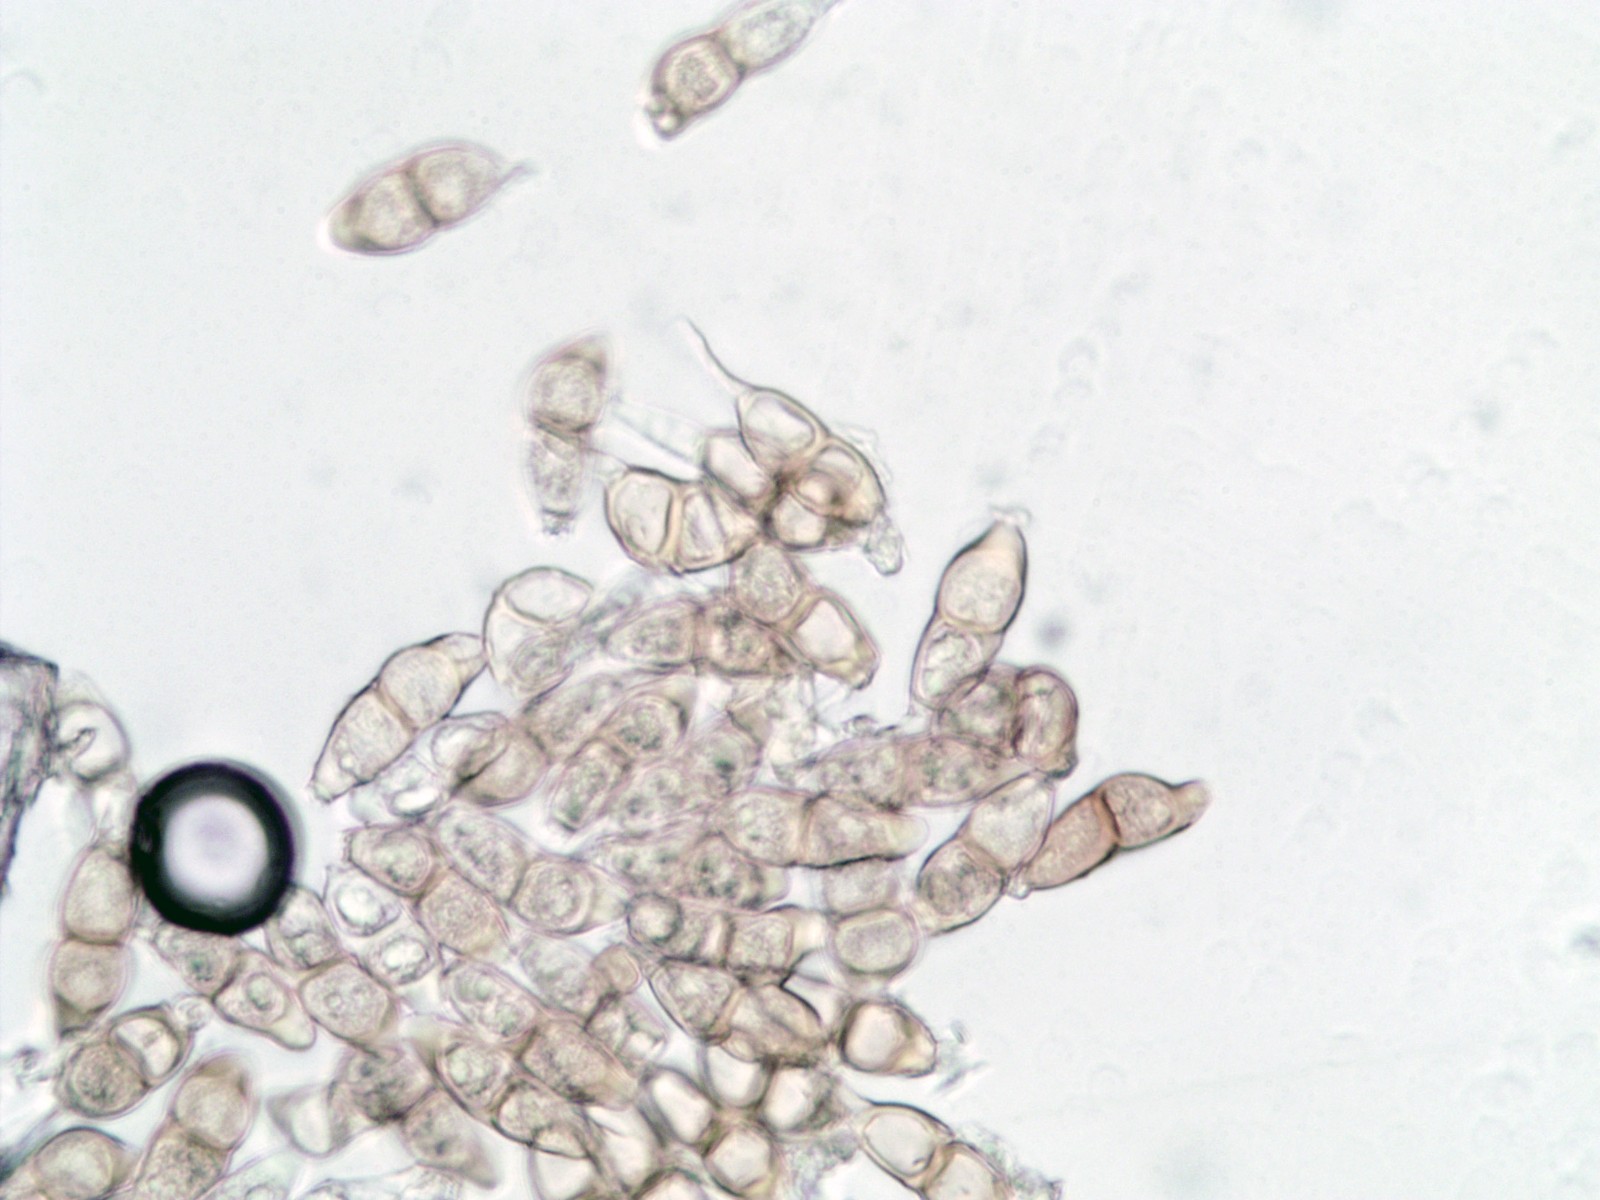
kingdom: Fungi
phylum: Basidiomycota
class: Pucciniomycetes
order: Pucciniales
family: Pucciniaceae
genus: Puccinia
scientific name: Puccinia veronicae
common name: Wood speedwell rust
